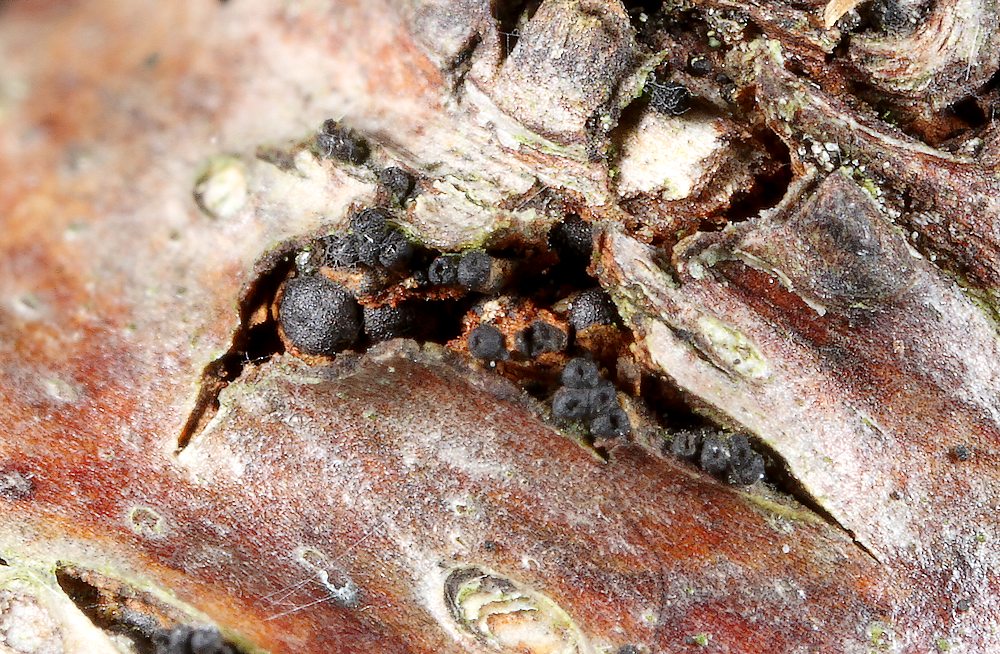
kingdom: Fungi
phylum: Ascomycota
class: Sordariomycetes
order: Xylariales
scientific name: Xylariales
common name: stødsvampordenen
